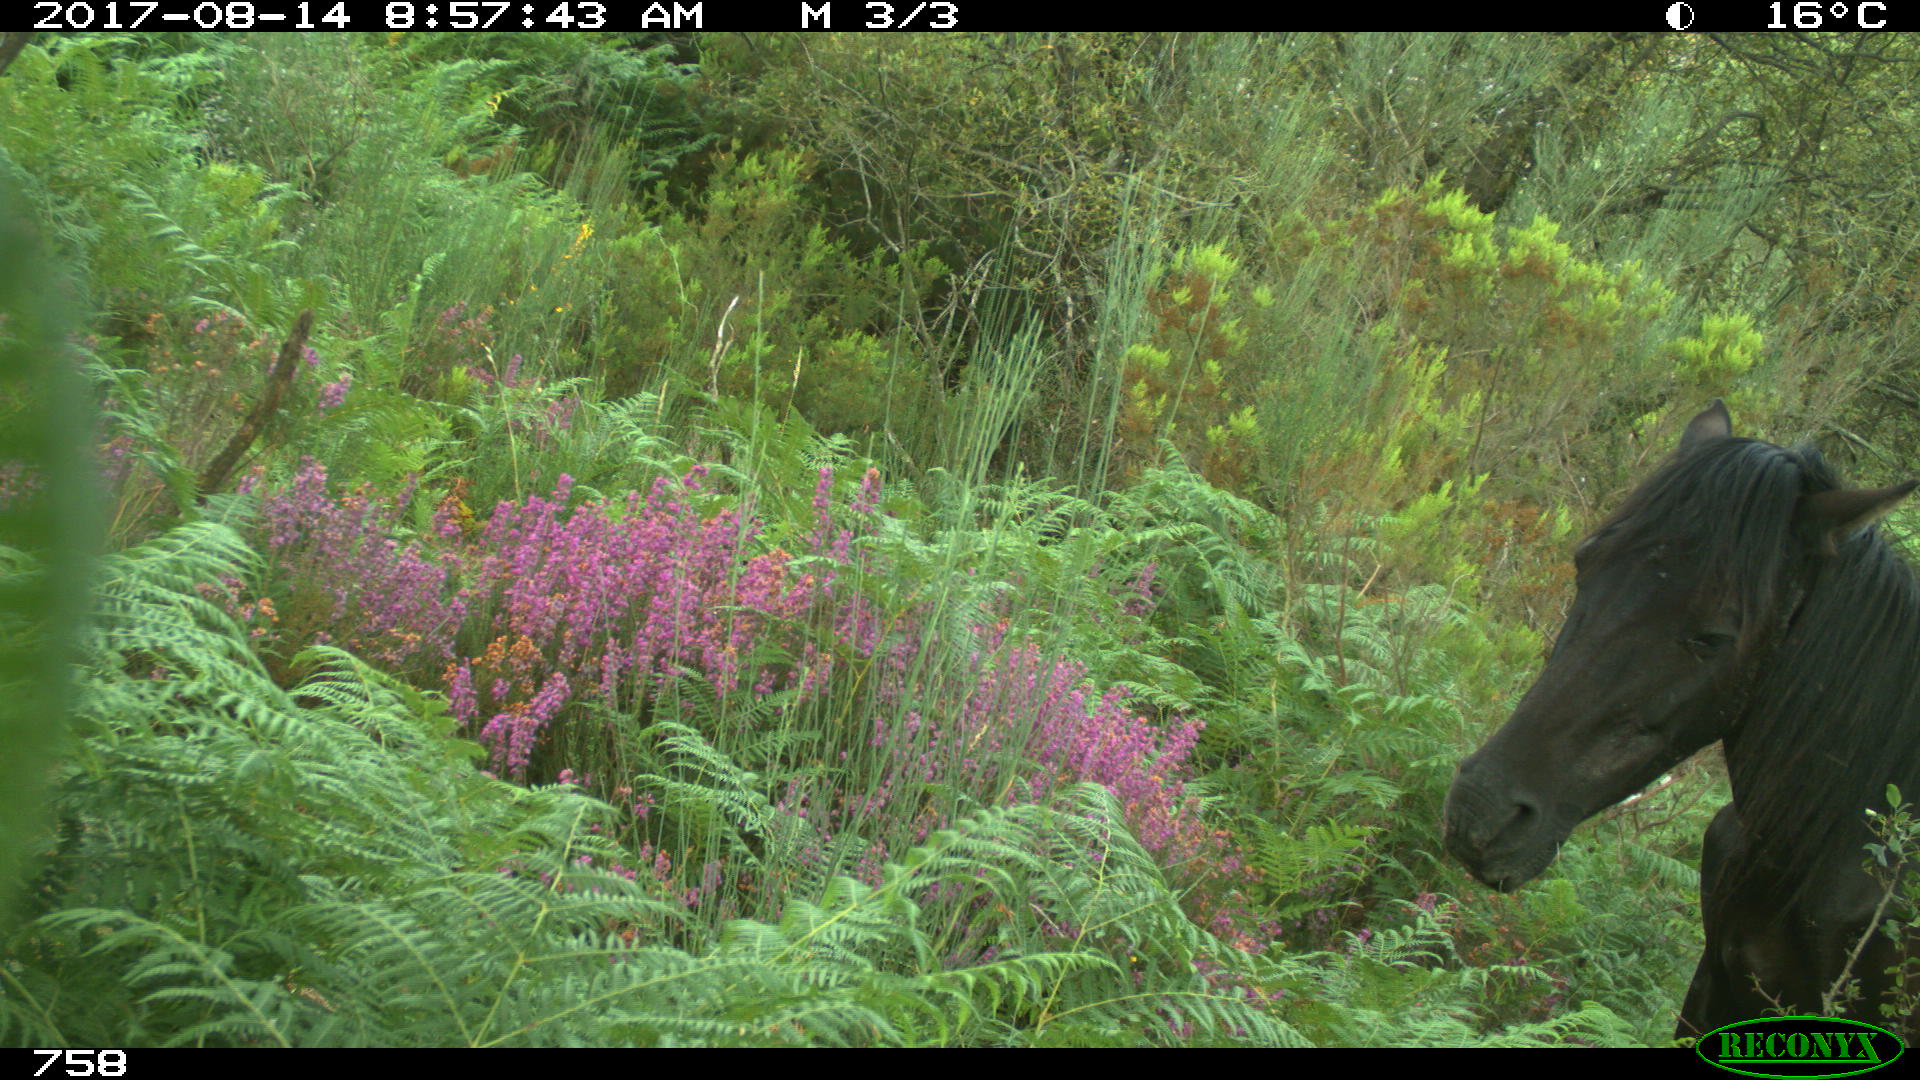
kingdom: Animalia
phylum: Chordata
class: Mammalia
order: Perissodactyla
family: Equidae
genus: Equus
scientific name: Equus caballus
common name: Horse
